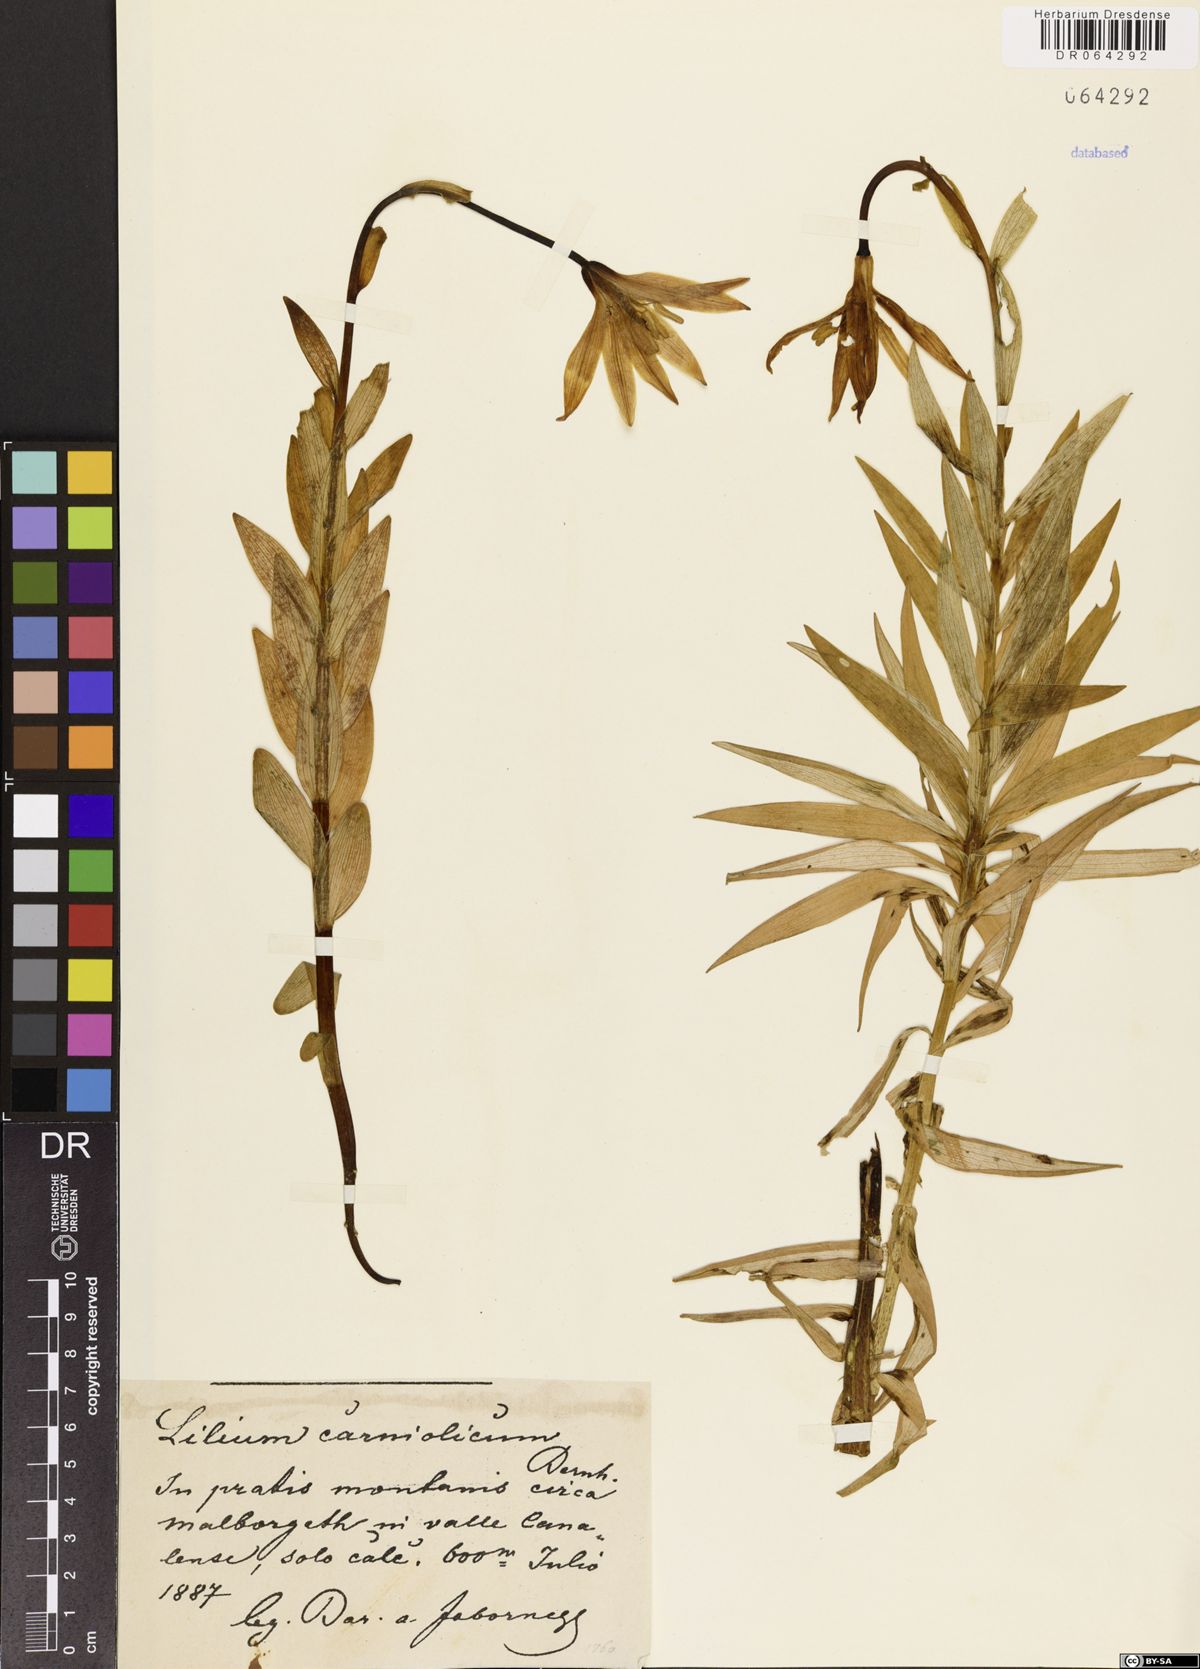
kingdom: Plantae
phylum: Tracheophyta
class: Liliopsida
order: Liliales
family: Liliaceae
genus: Lilium
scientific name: Lilium carniolicum
